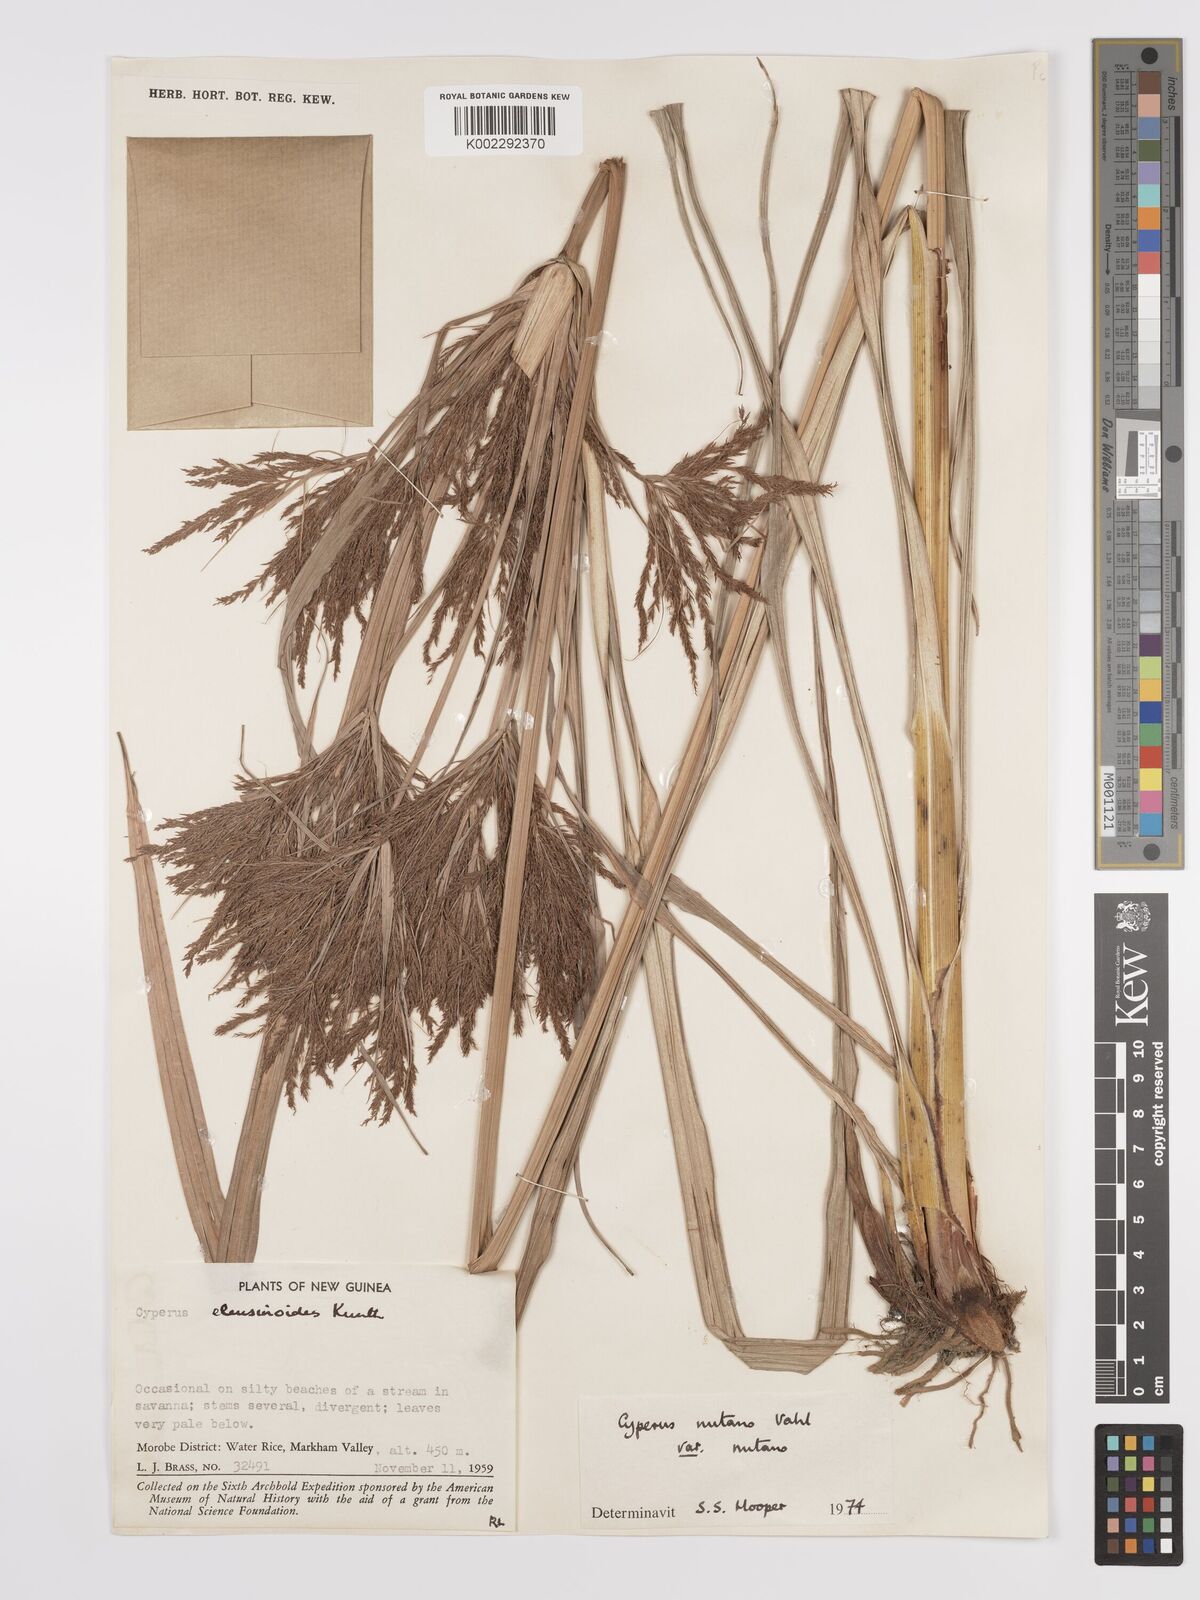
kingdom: Plantae
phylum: Tracheophyta
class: Liliopsida
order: Poales
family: Cyperaceae
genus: Cyperus
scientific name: Cyperus nutans
